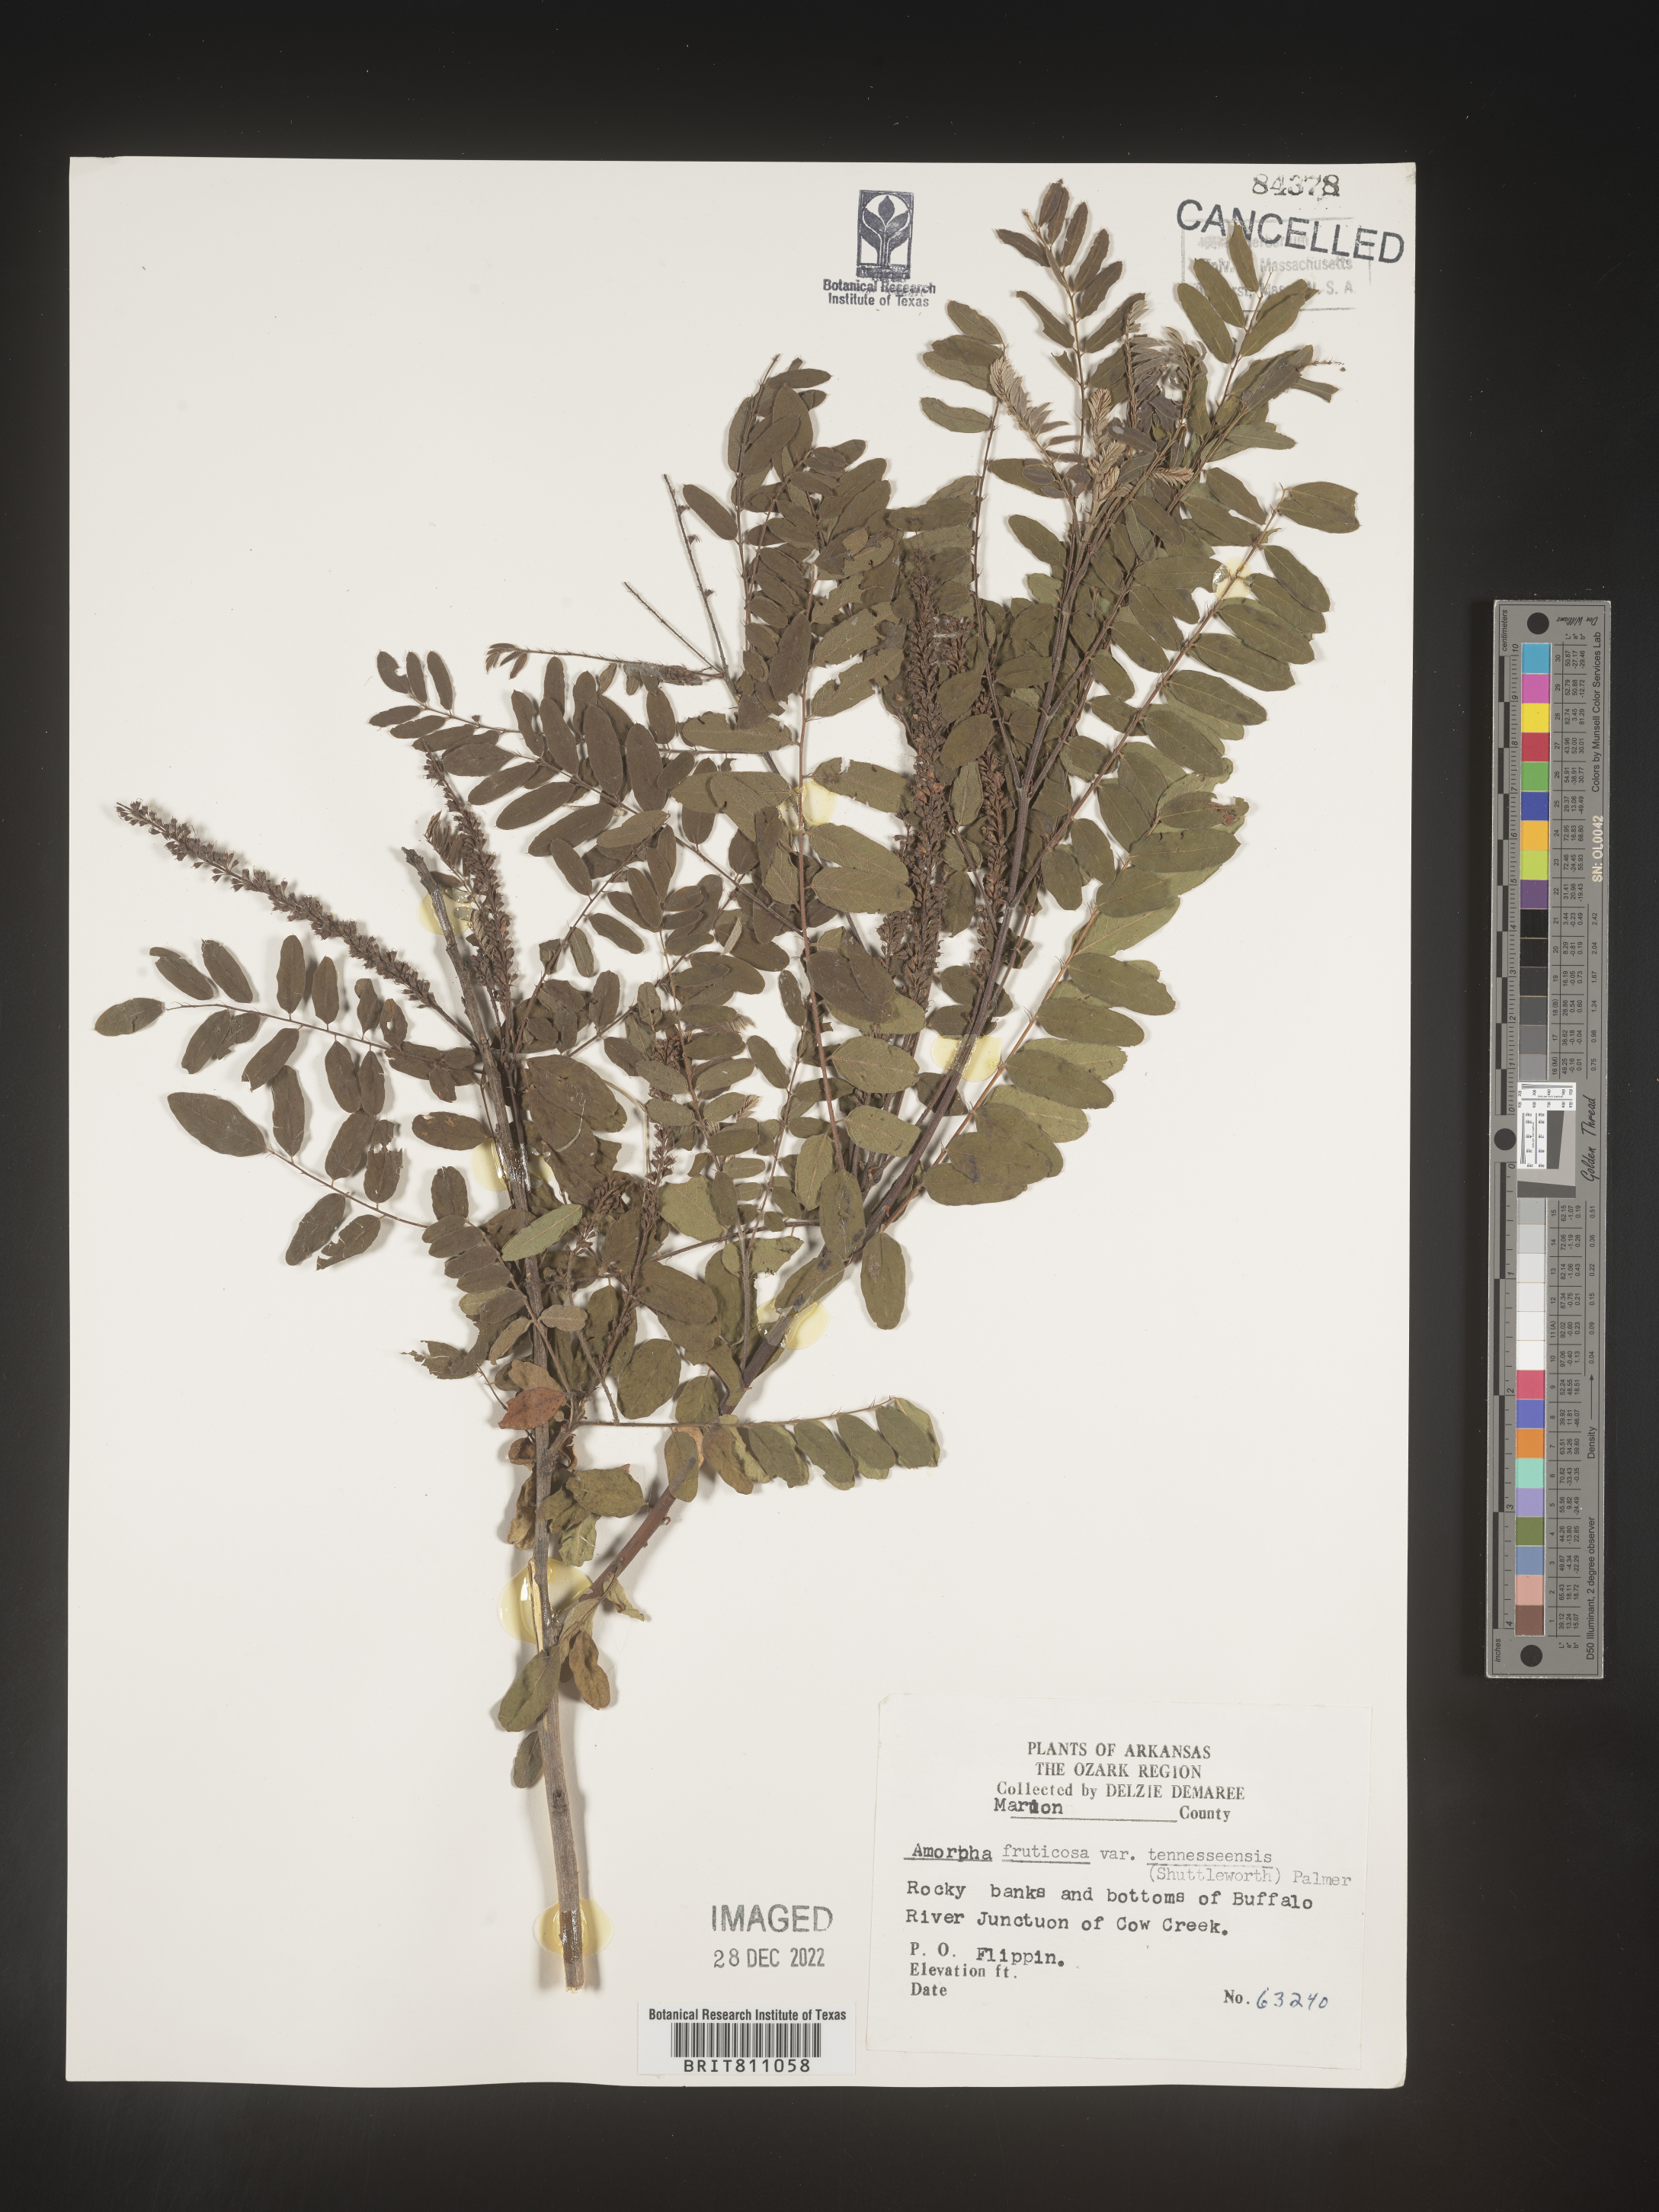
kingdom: Plantae
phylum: Tracheophyta
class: Magnoliopsida
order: Fabales
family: Fabaceae
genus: Amorpha
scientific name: Amorpha fruticosa
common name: False indigo
